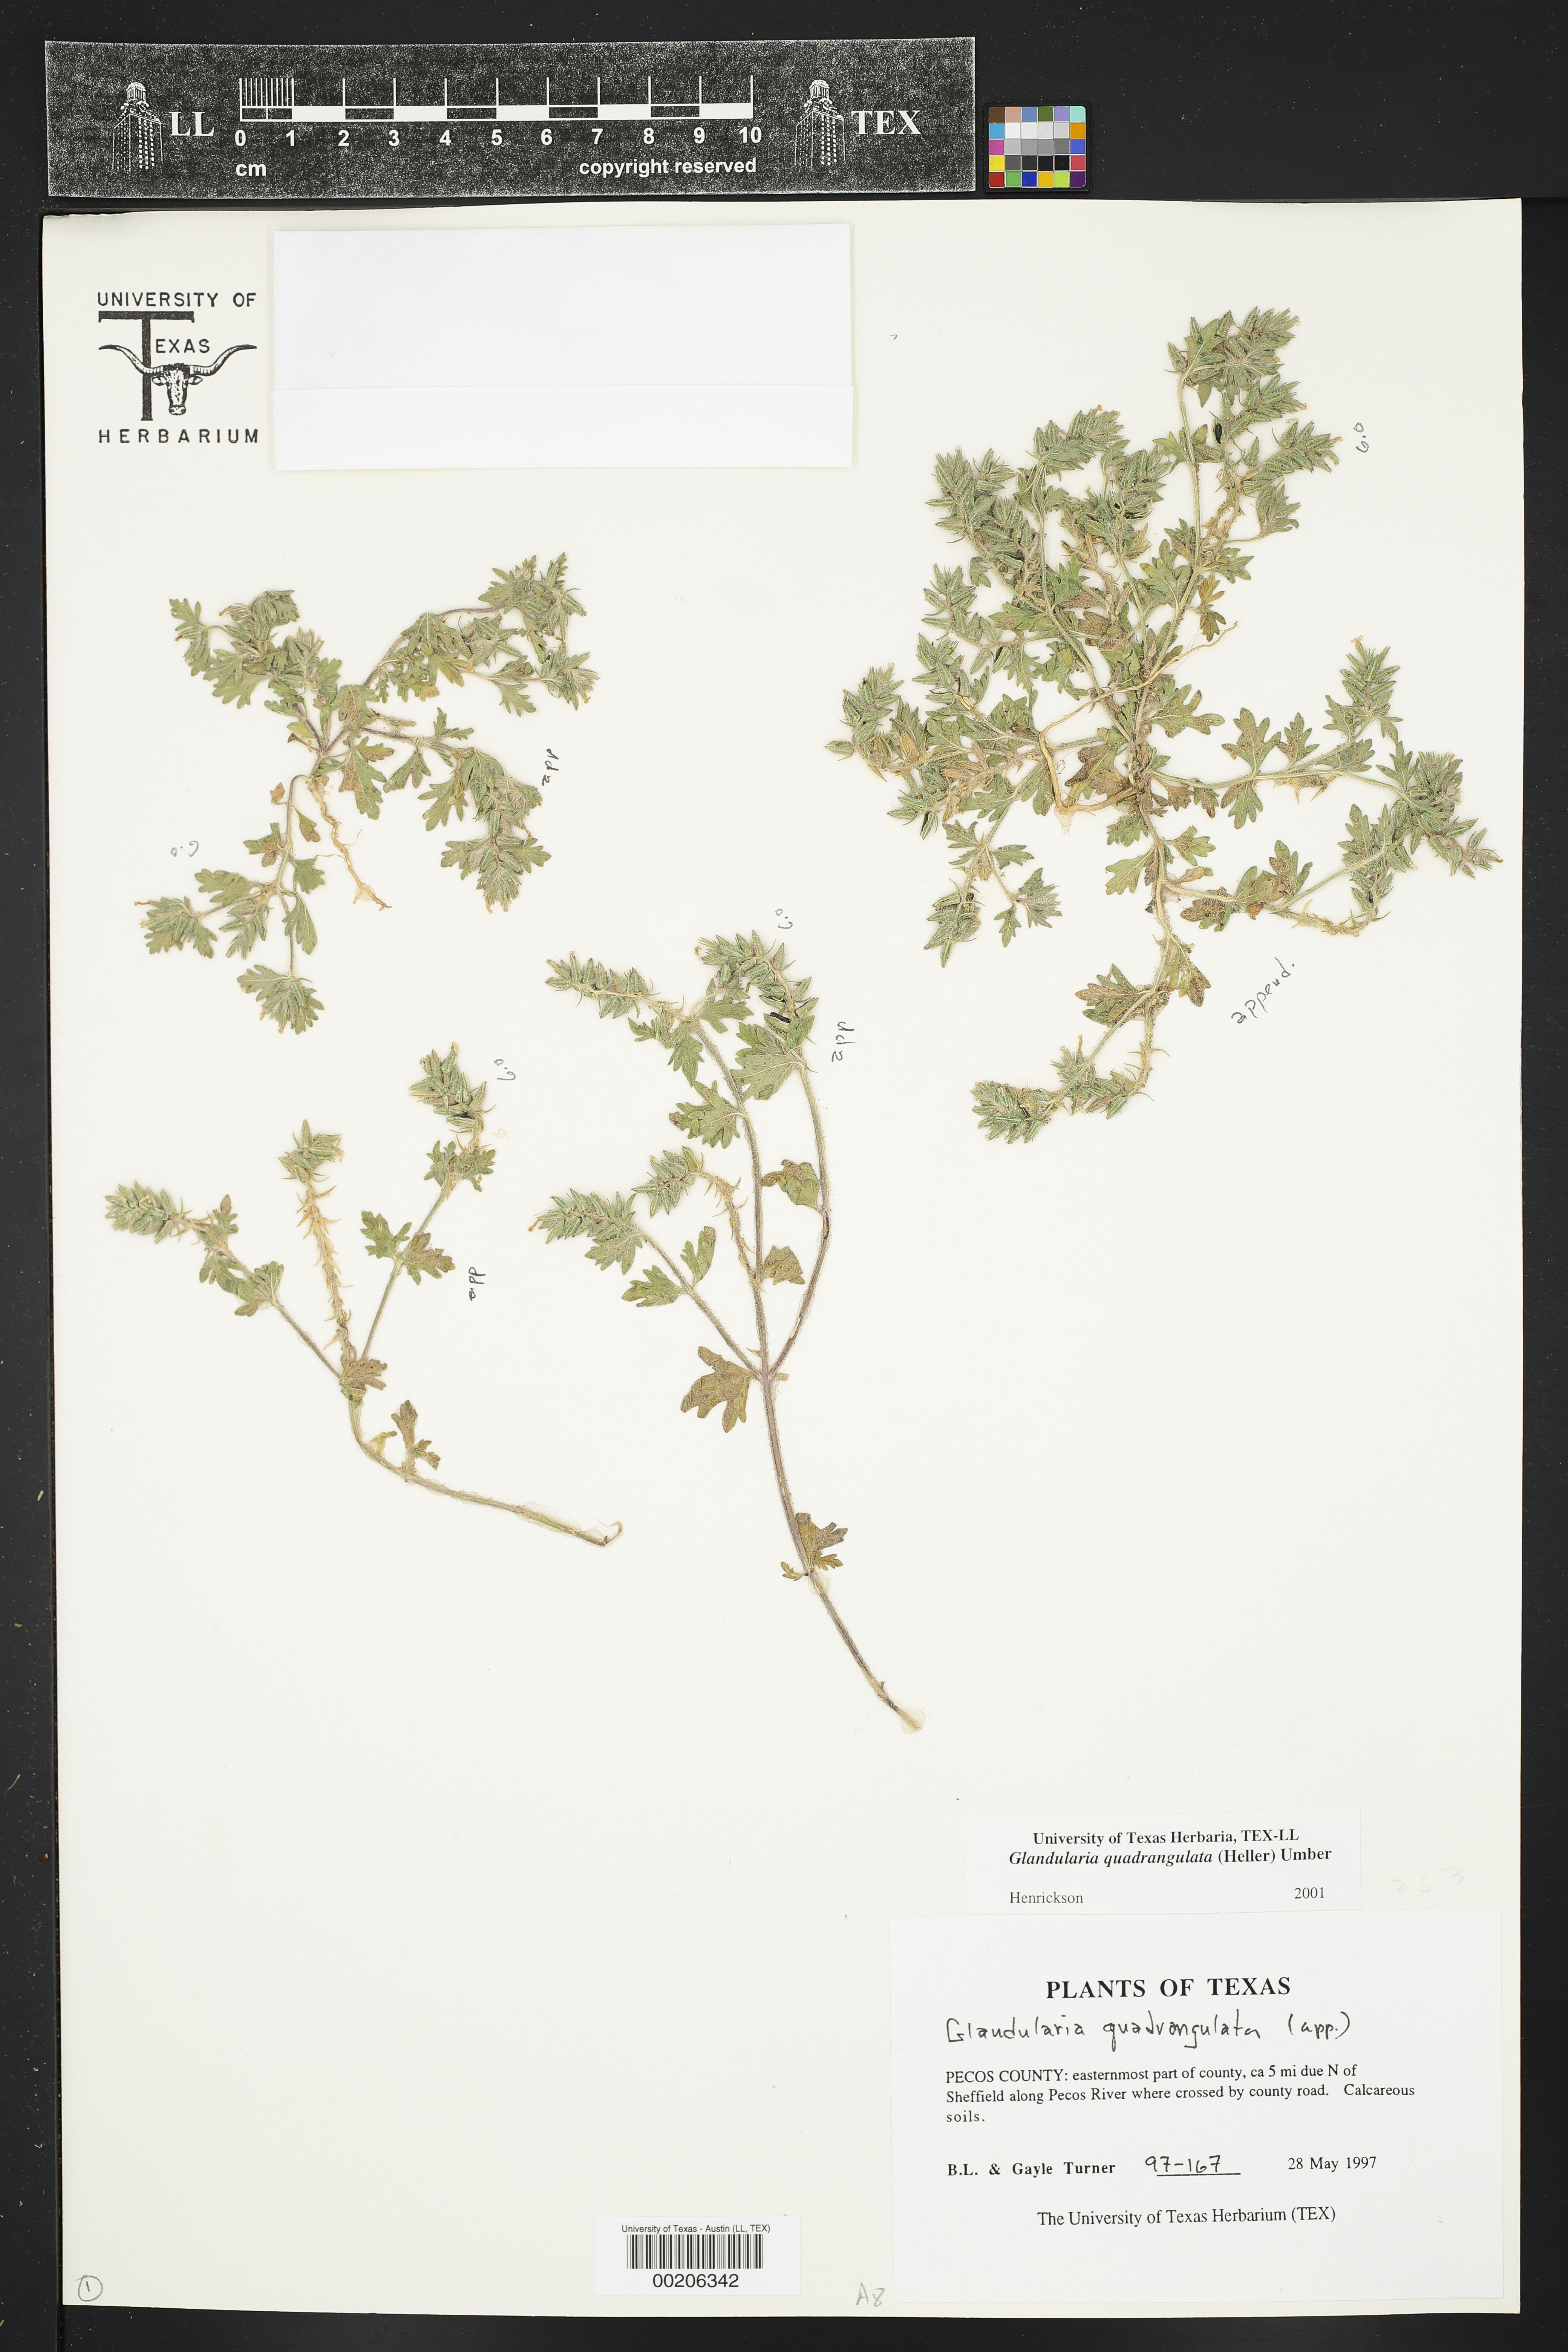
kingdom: Plantae
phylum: Tracheophyta
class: Magnoliopsida
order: Lamiales
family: Verbenaceae
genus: Verbena
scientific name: Verbena quadrangulata
